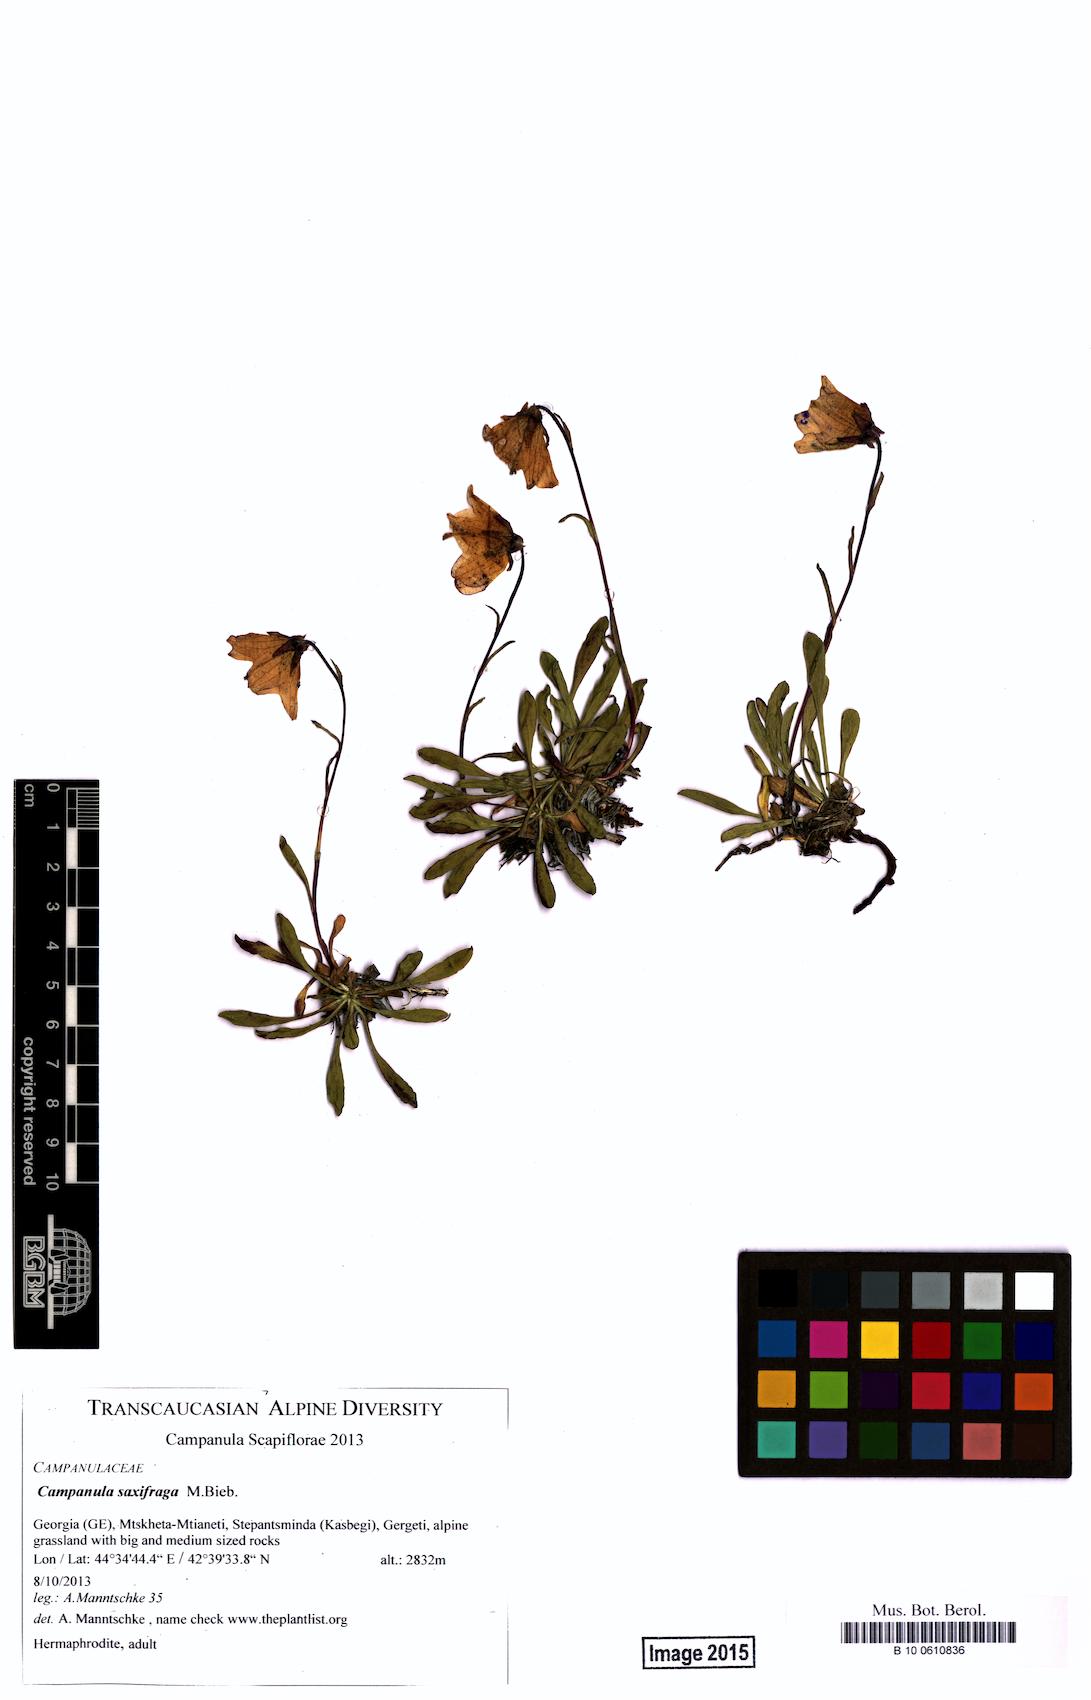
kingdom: Plantae
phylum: Tracheophyta
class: Magnoliopsida
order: Asterales
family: Campanulaceae
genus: Campanula
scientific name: Campanula saxifraga
